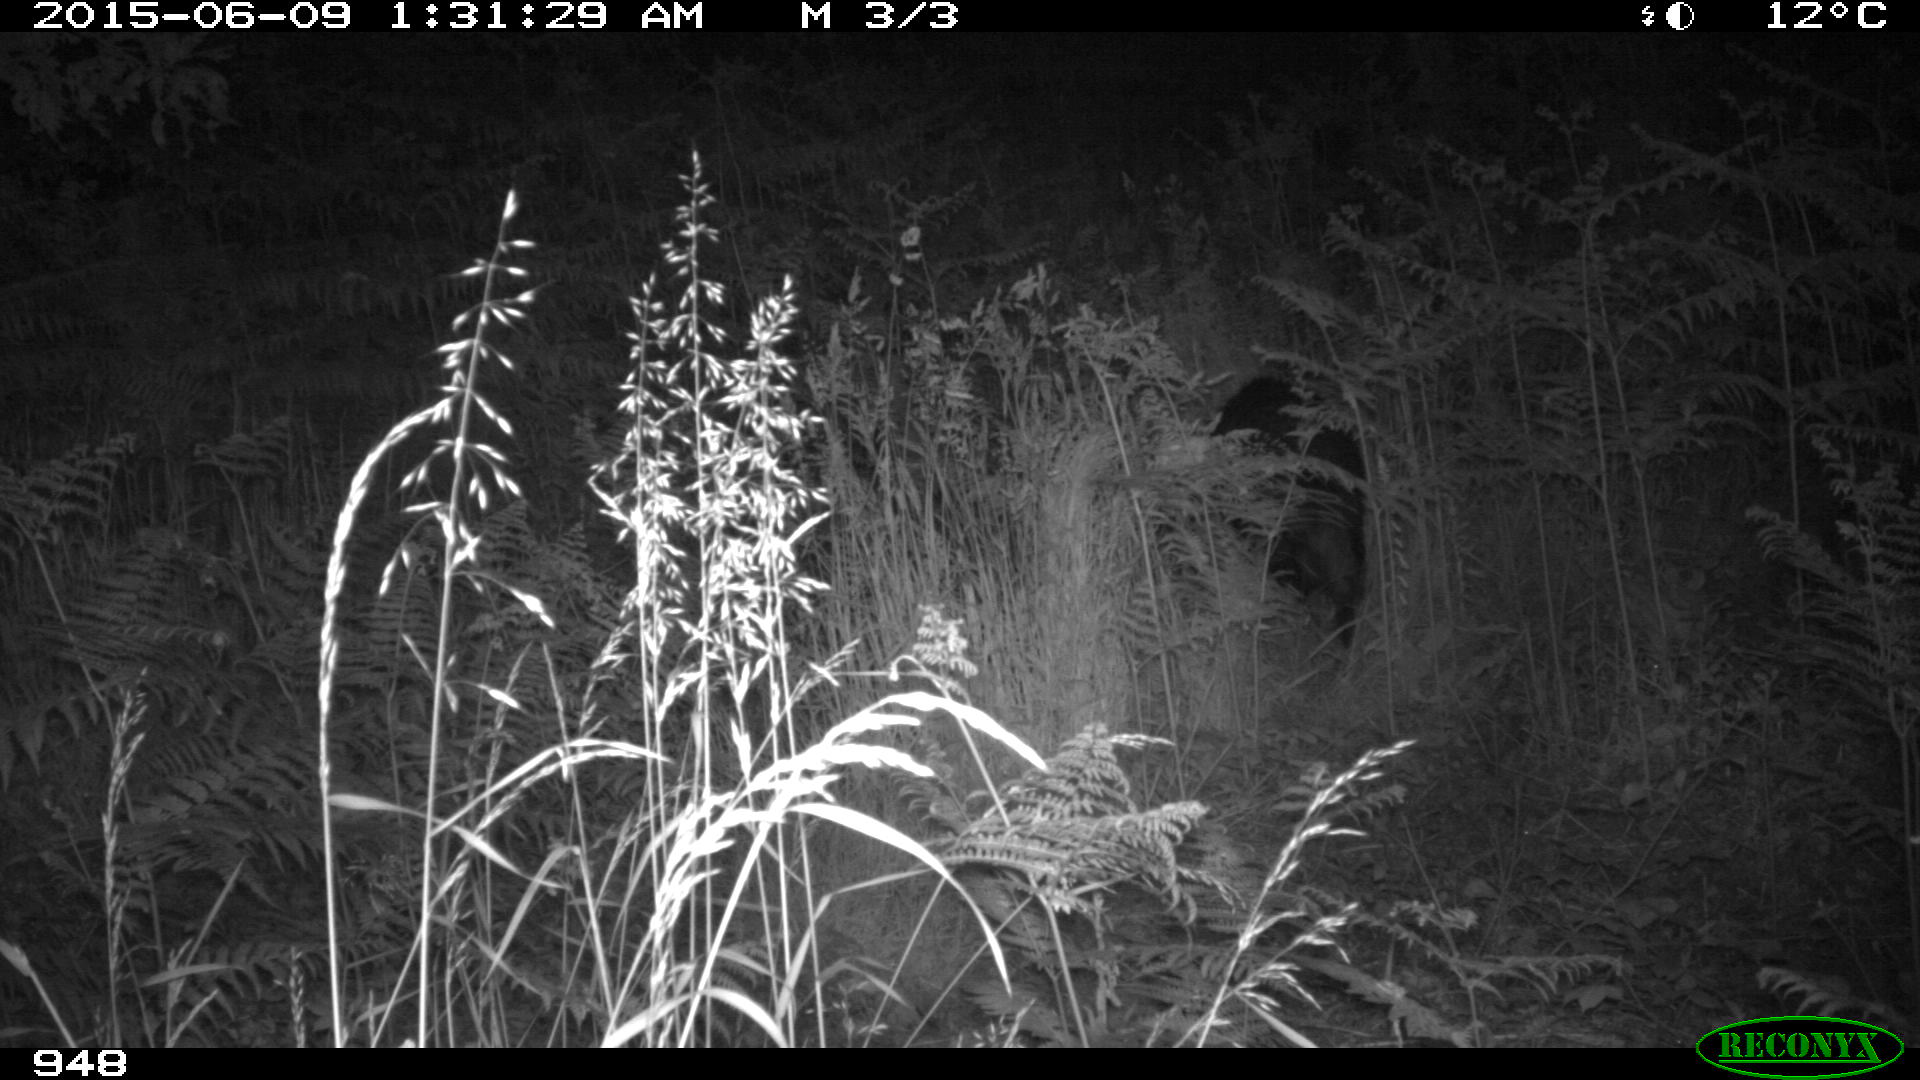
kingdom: Animalia
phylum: Chordata
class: Mammalia
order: Artiodactyla
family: Suidae
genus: Sus
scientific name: Sus scrofa
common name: Wild boar
